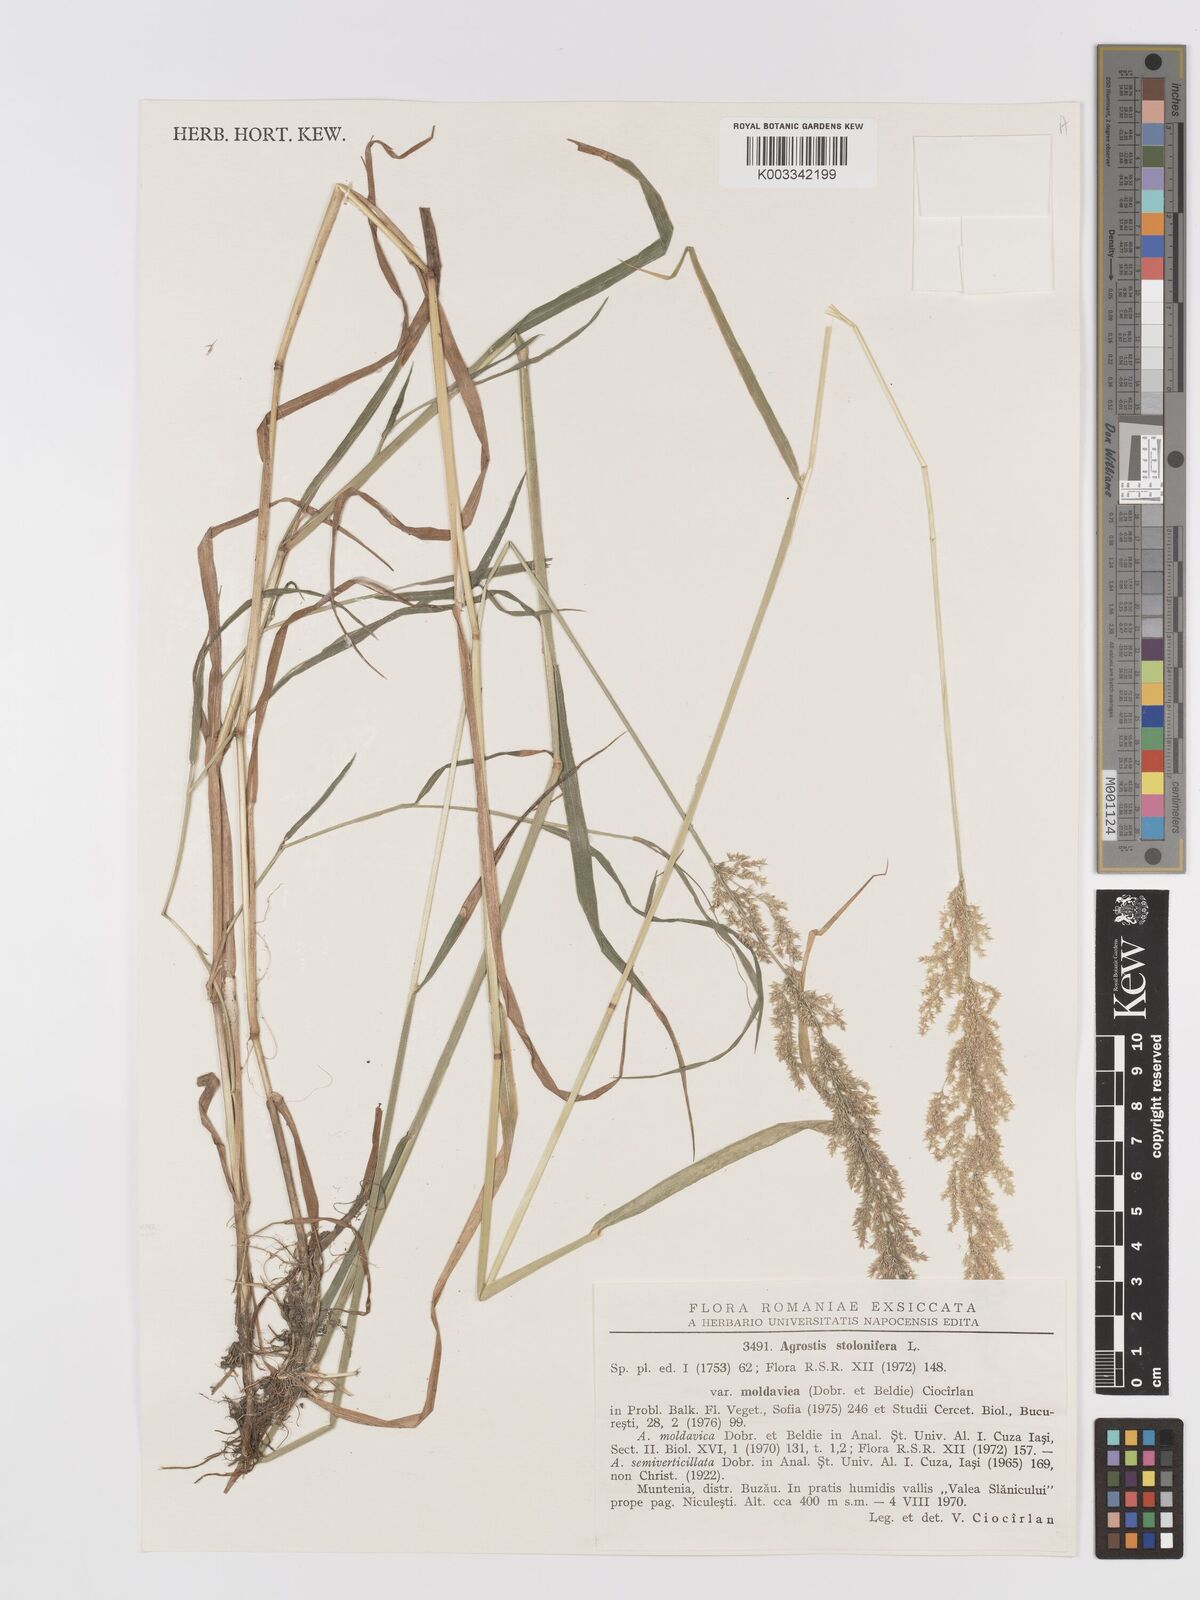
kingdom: Plantae
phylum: Tracheophyta
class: Liliopsida
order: Poales
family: Poaceae
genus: Agrostis
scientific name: Agrostis stolonifera
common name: Creeping bentgrass
